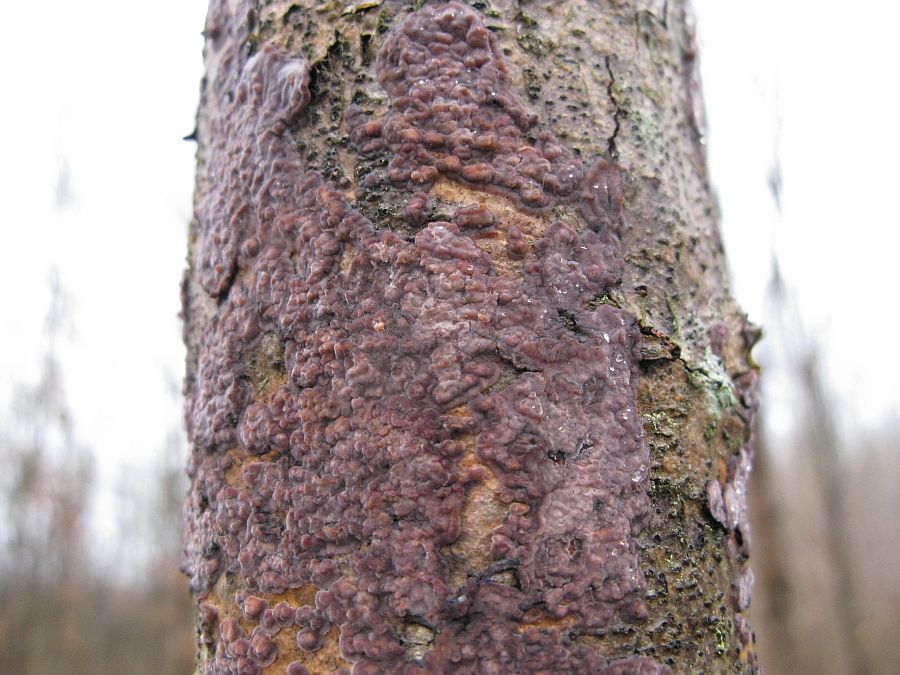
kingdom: Fungi
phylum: Basidiomycota
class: Agaricomycetes
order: Russulales
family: Peniophoraceae
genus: Peniophora
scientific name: Peniophora quercina
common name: ege-voksskind
